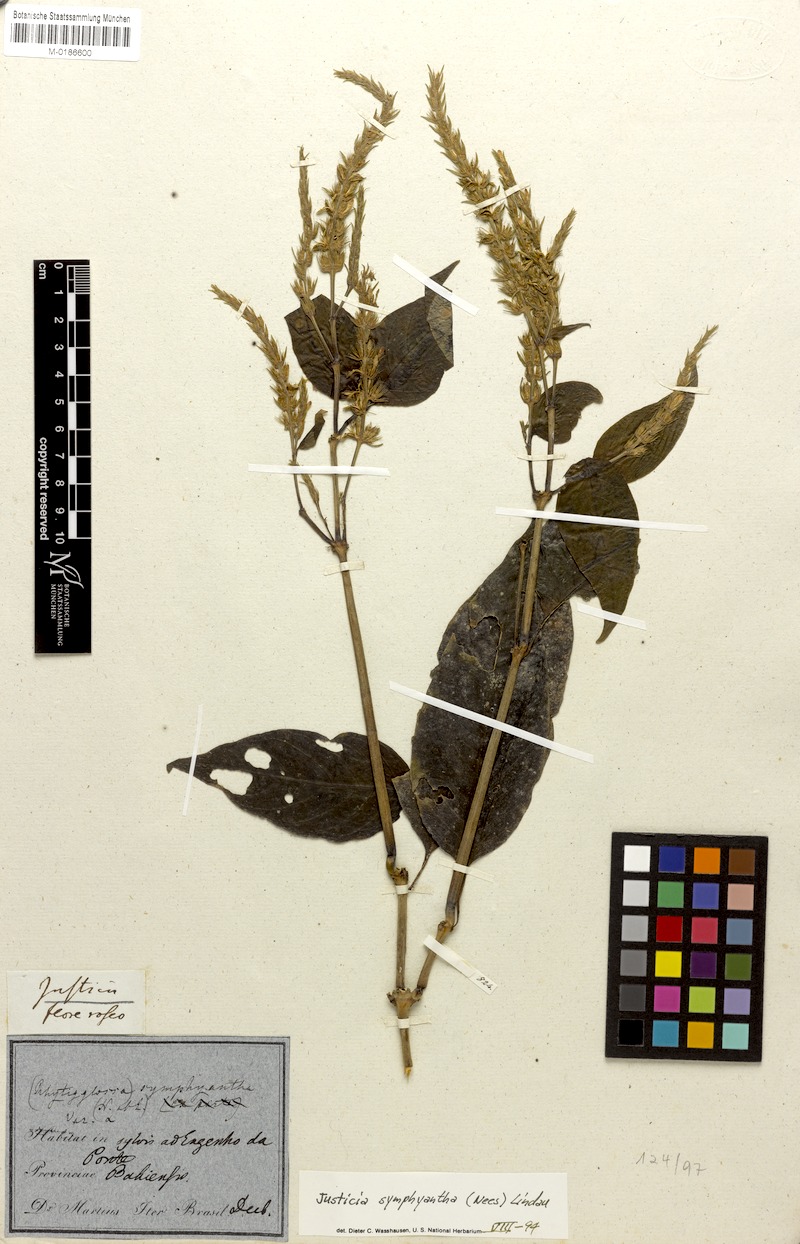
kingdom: Plantae
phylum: Tracheophyta
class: Magnoliopsida
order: Lamiales
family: Acanthaceae
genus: Justicia
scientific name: Justicia symphyantha
